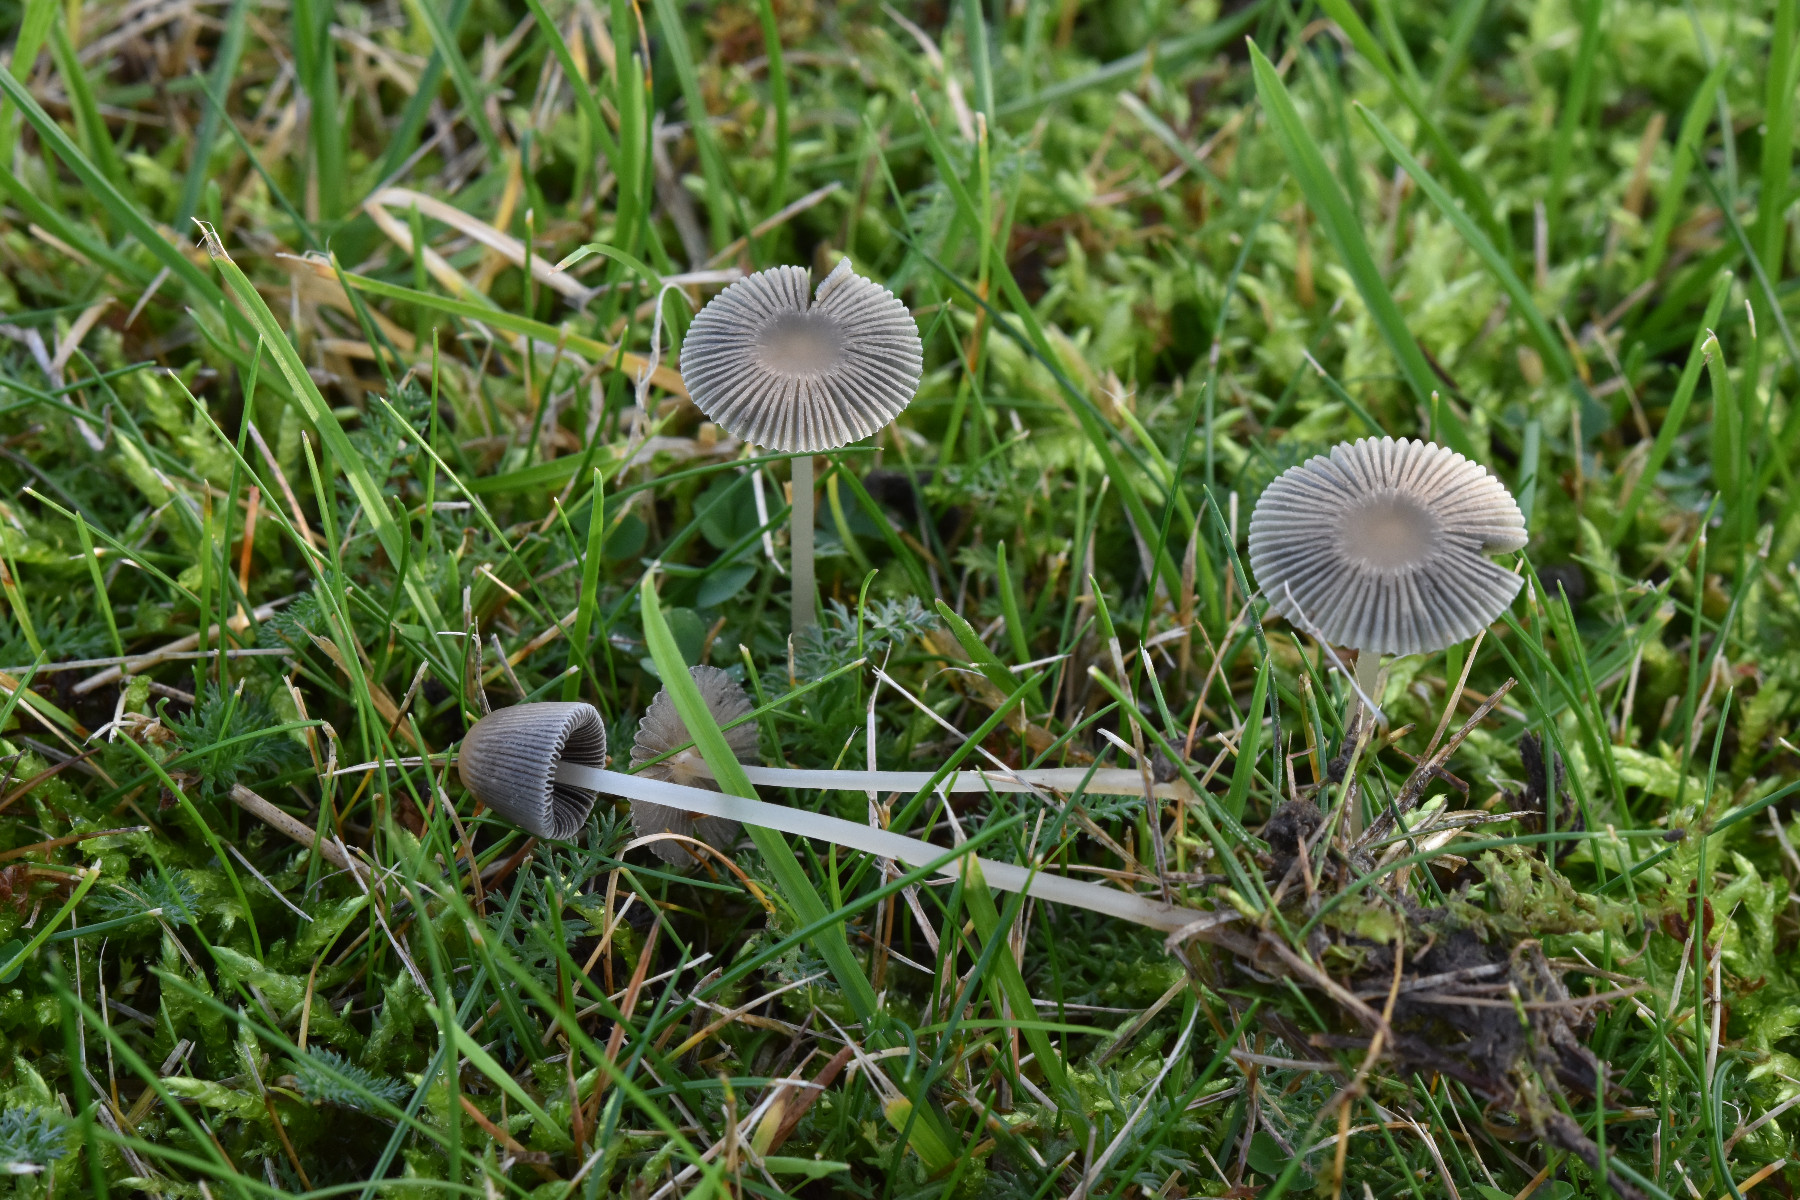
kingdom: Fungi
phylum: Basidiomycota
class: Agaricomycetes
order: Agaricales
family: Psathyrellaceae
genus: Parasola
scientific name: Parasola plicatilis
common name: plæne-hjulhat
